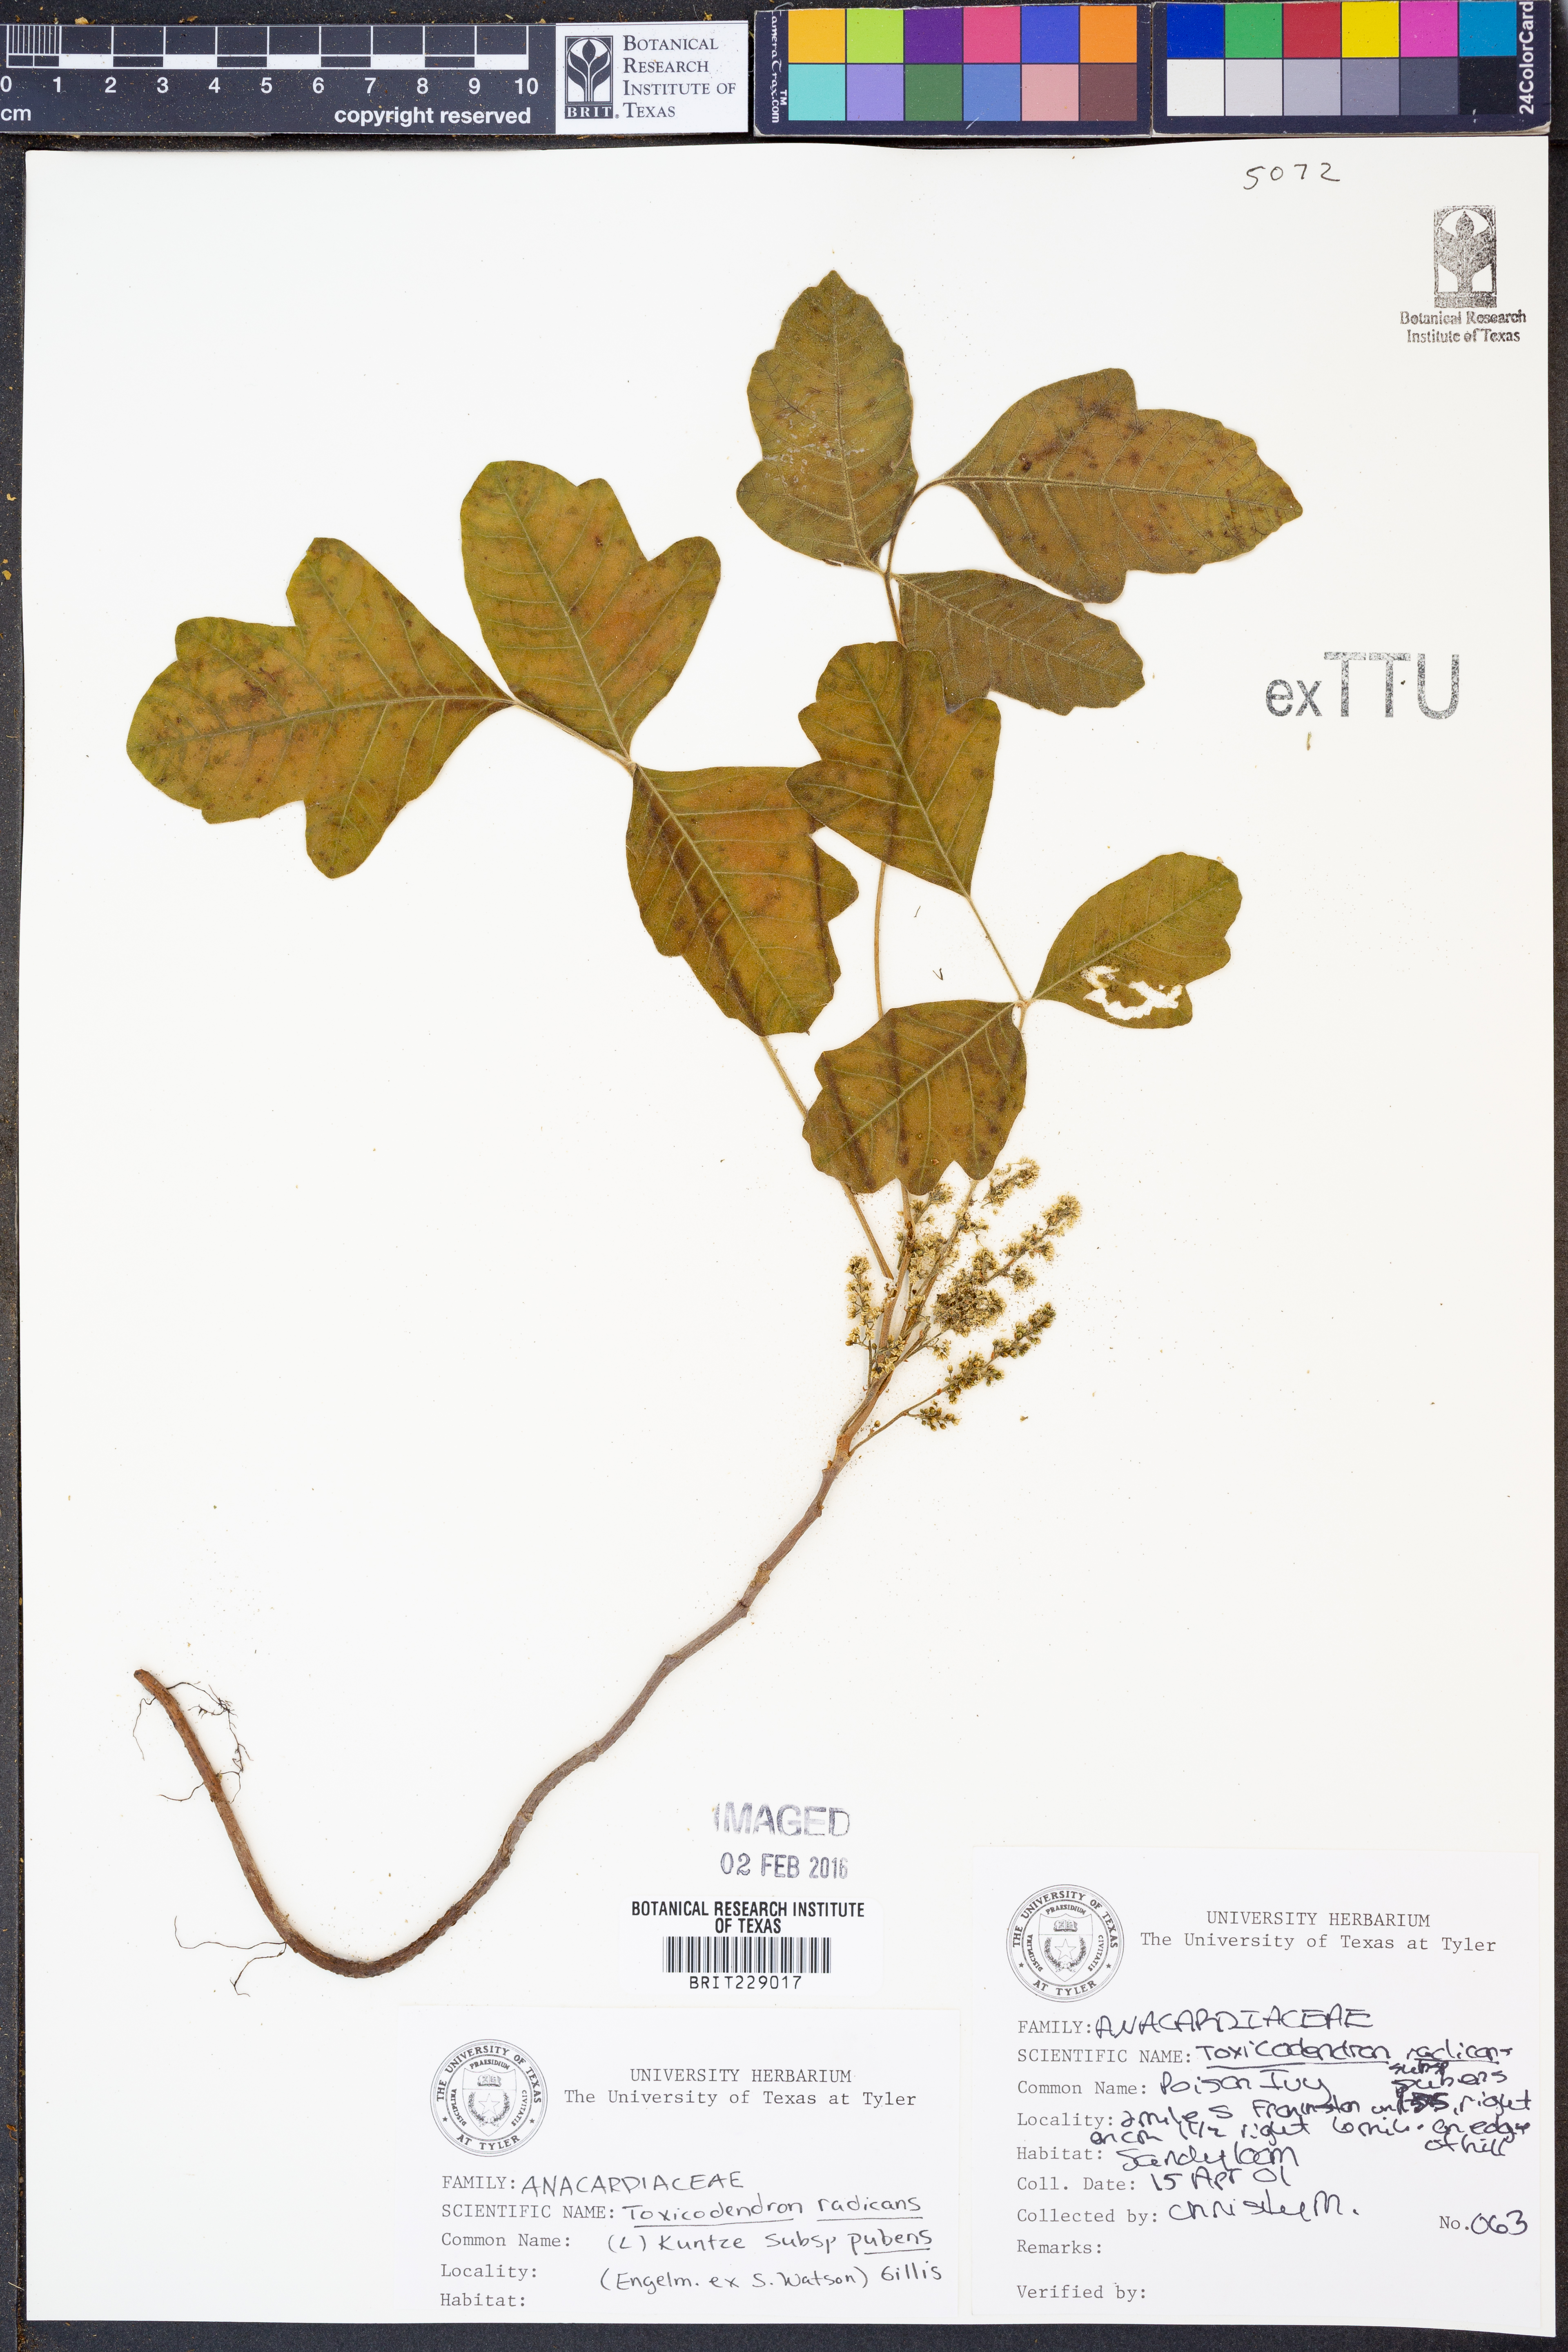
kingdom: Plantae
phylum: Tracheophyta
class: Magnoliopsida
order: Sapindales
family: Anacardiaceae
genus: Toxicodendron
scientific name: Toxicodendron radicans
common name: Poison ivy
